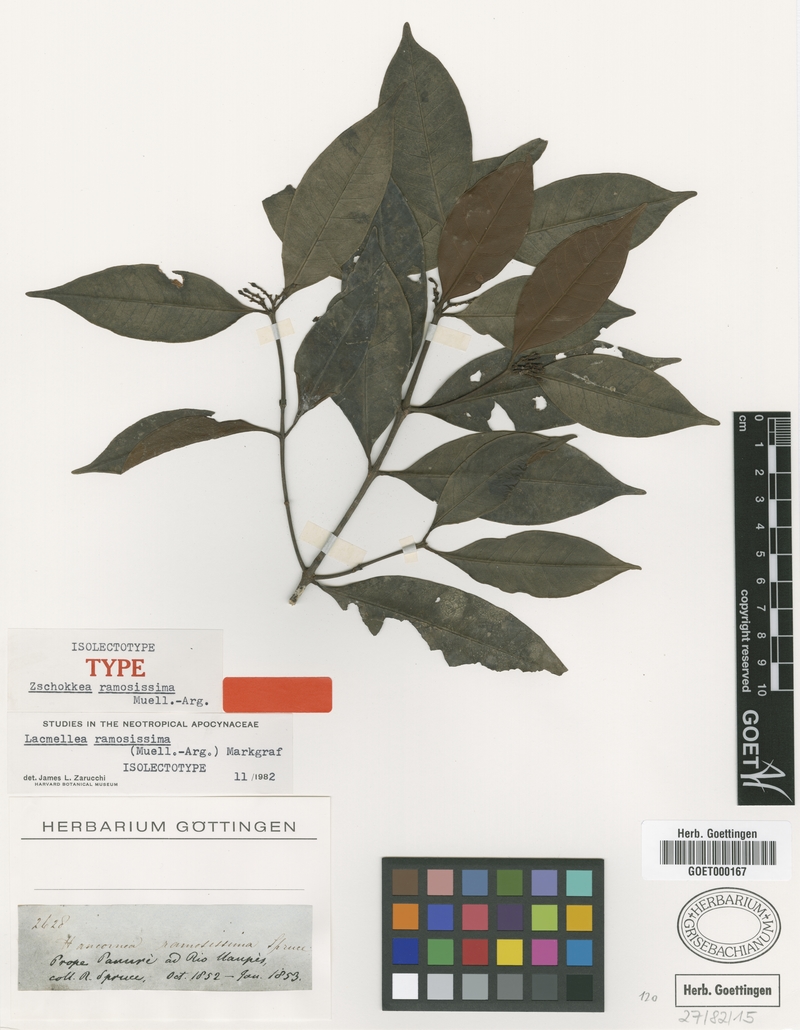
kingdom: Plantae
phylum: Tracheophyta
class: Magnoliopsida
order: Gentianales
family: Apocynaceae
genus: Lacmellea
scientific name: Lacmellea ramosissima
